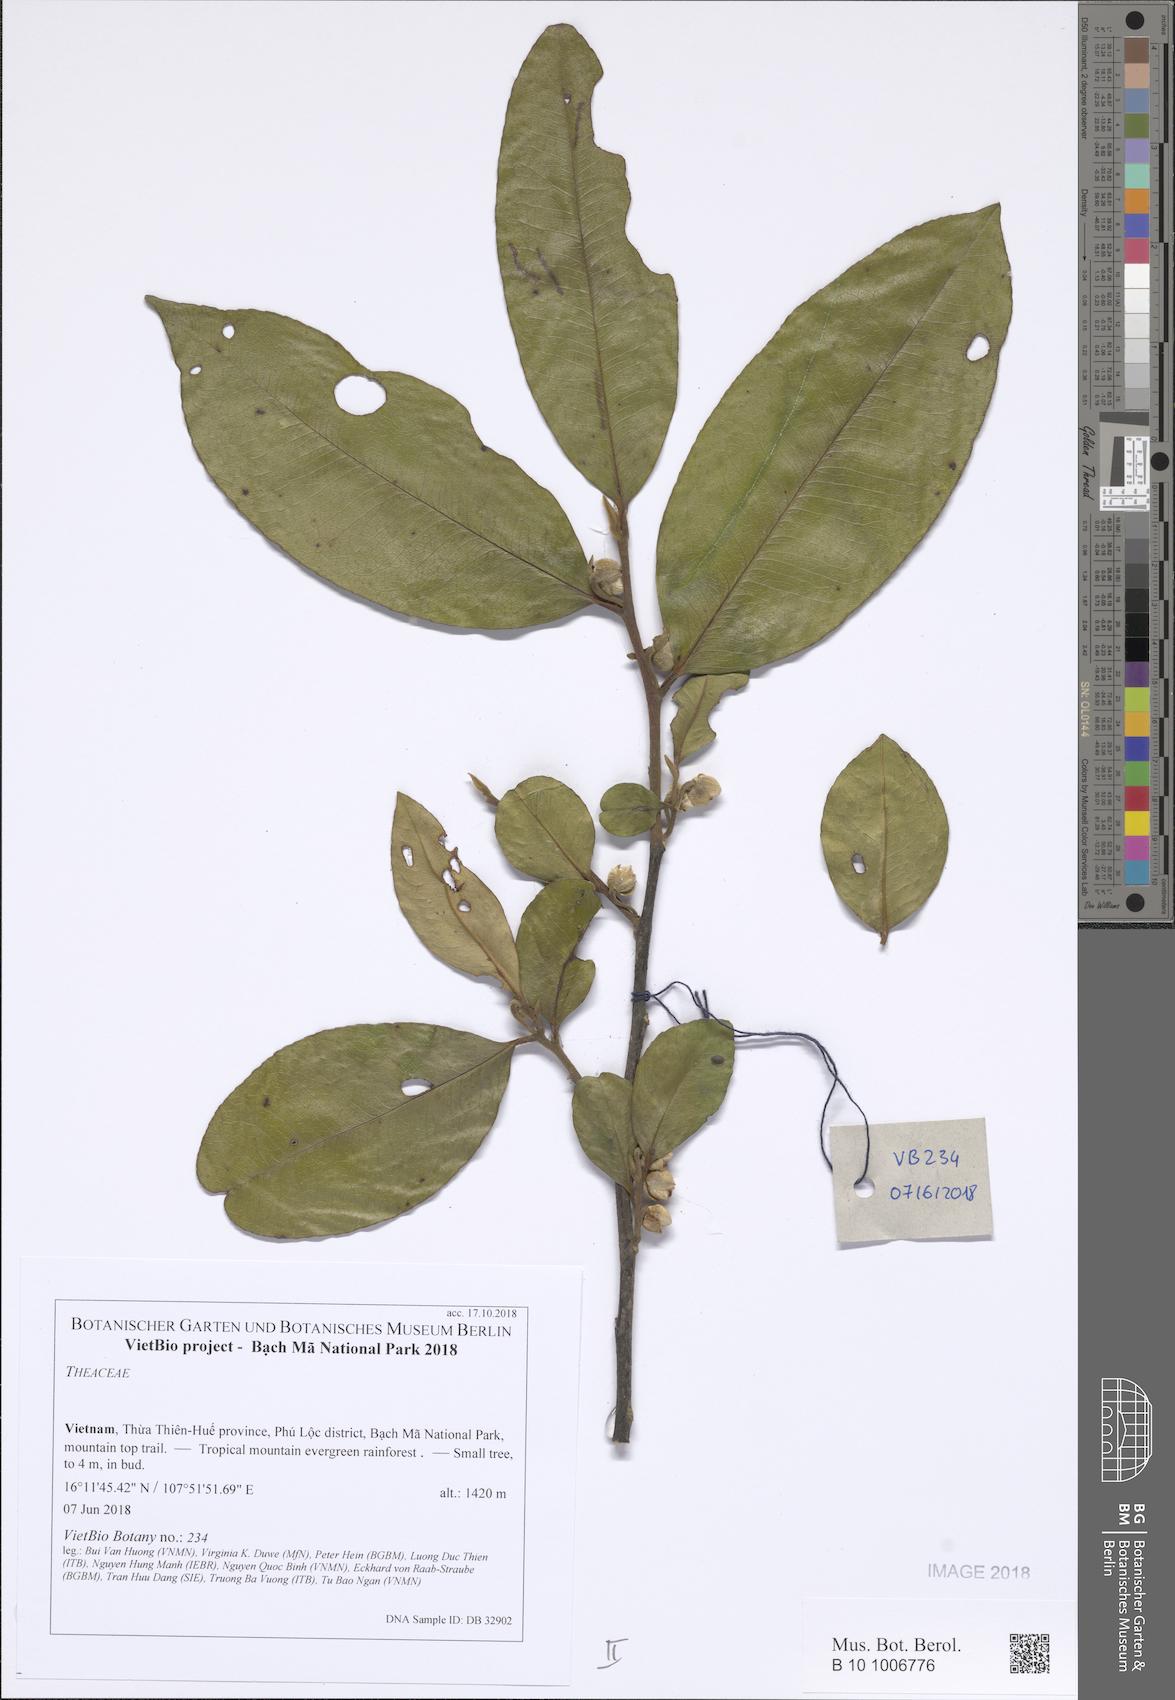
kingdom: Plantae
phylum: Tracheophyta
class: Magnoliopsida
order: Ericales
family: Pentaphylacaceae
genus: Adinandra
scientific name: Adinandra caudata
